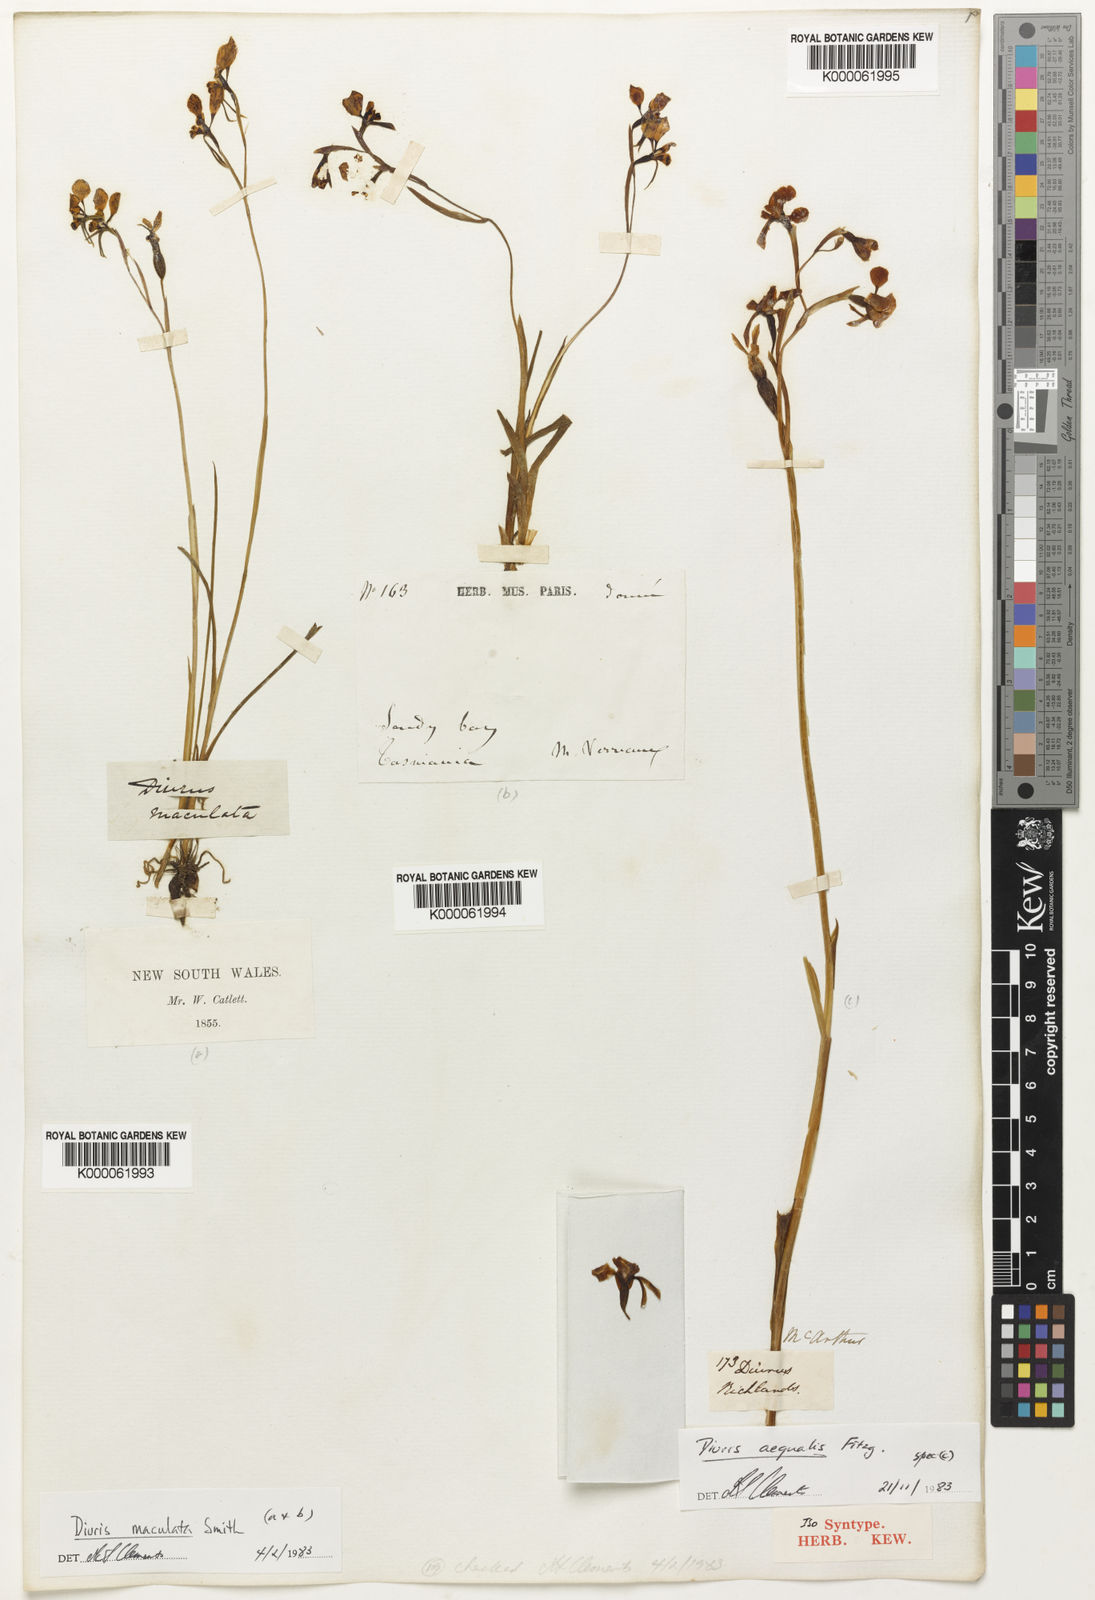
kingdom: Plantae
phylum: Tracheophyta
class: Liliopsida
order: Asparagales
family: Orchidaceae
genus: Diuris
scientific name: Diuris maculata
